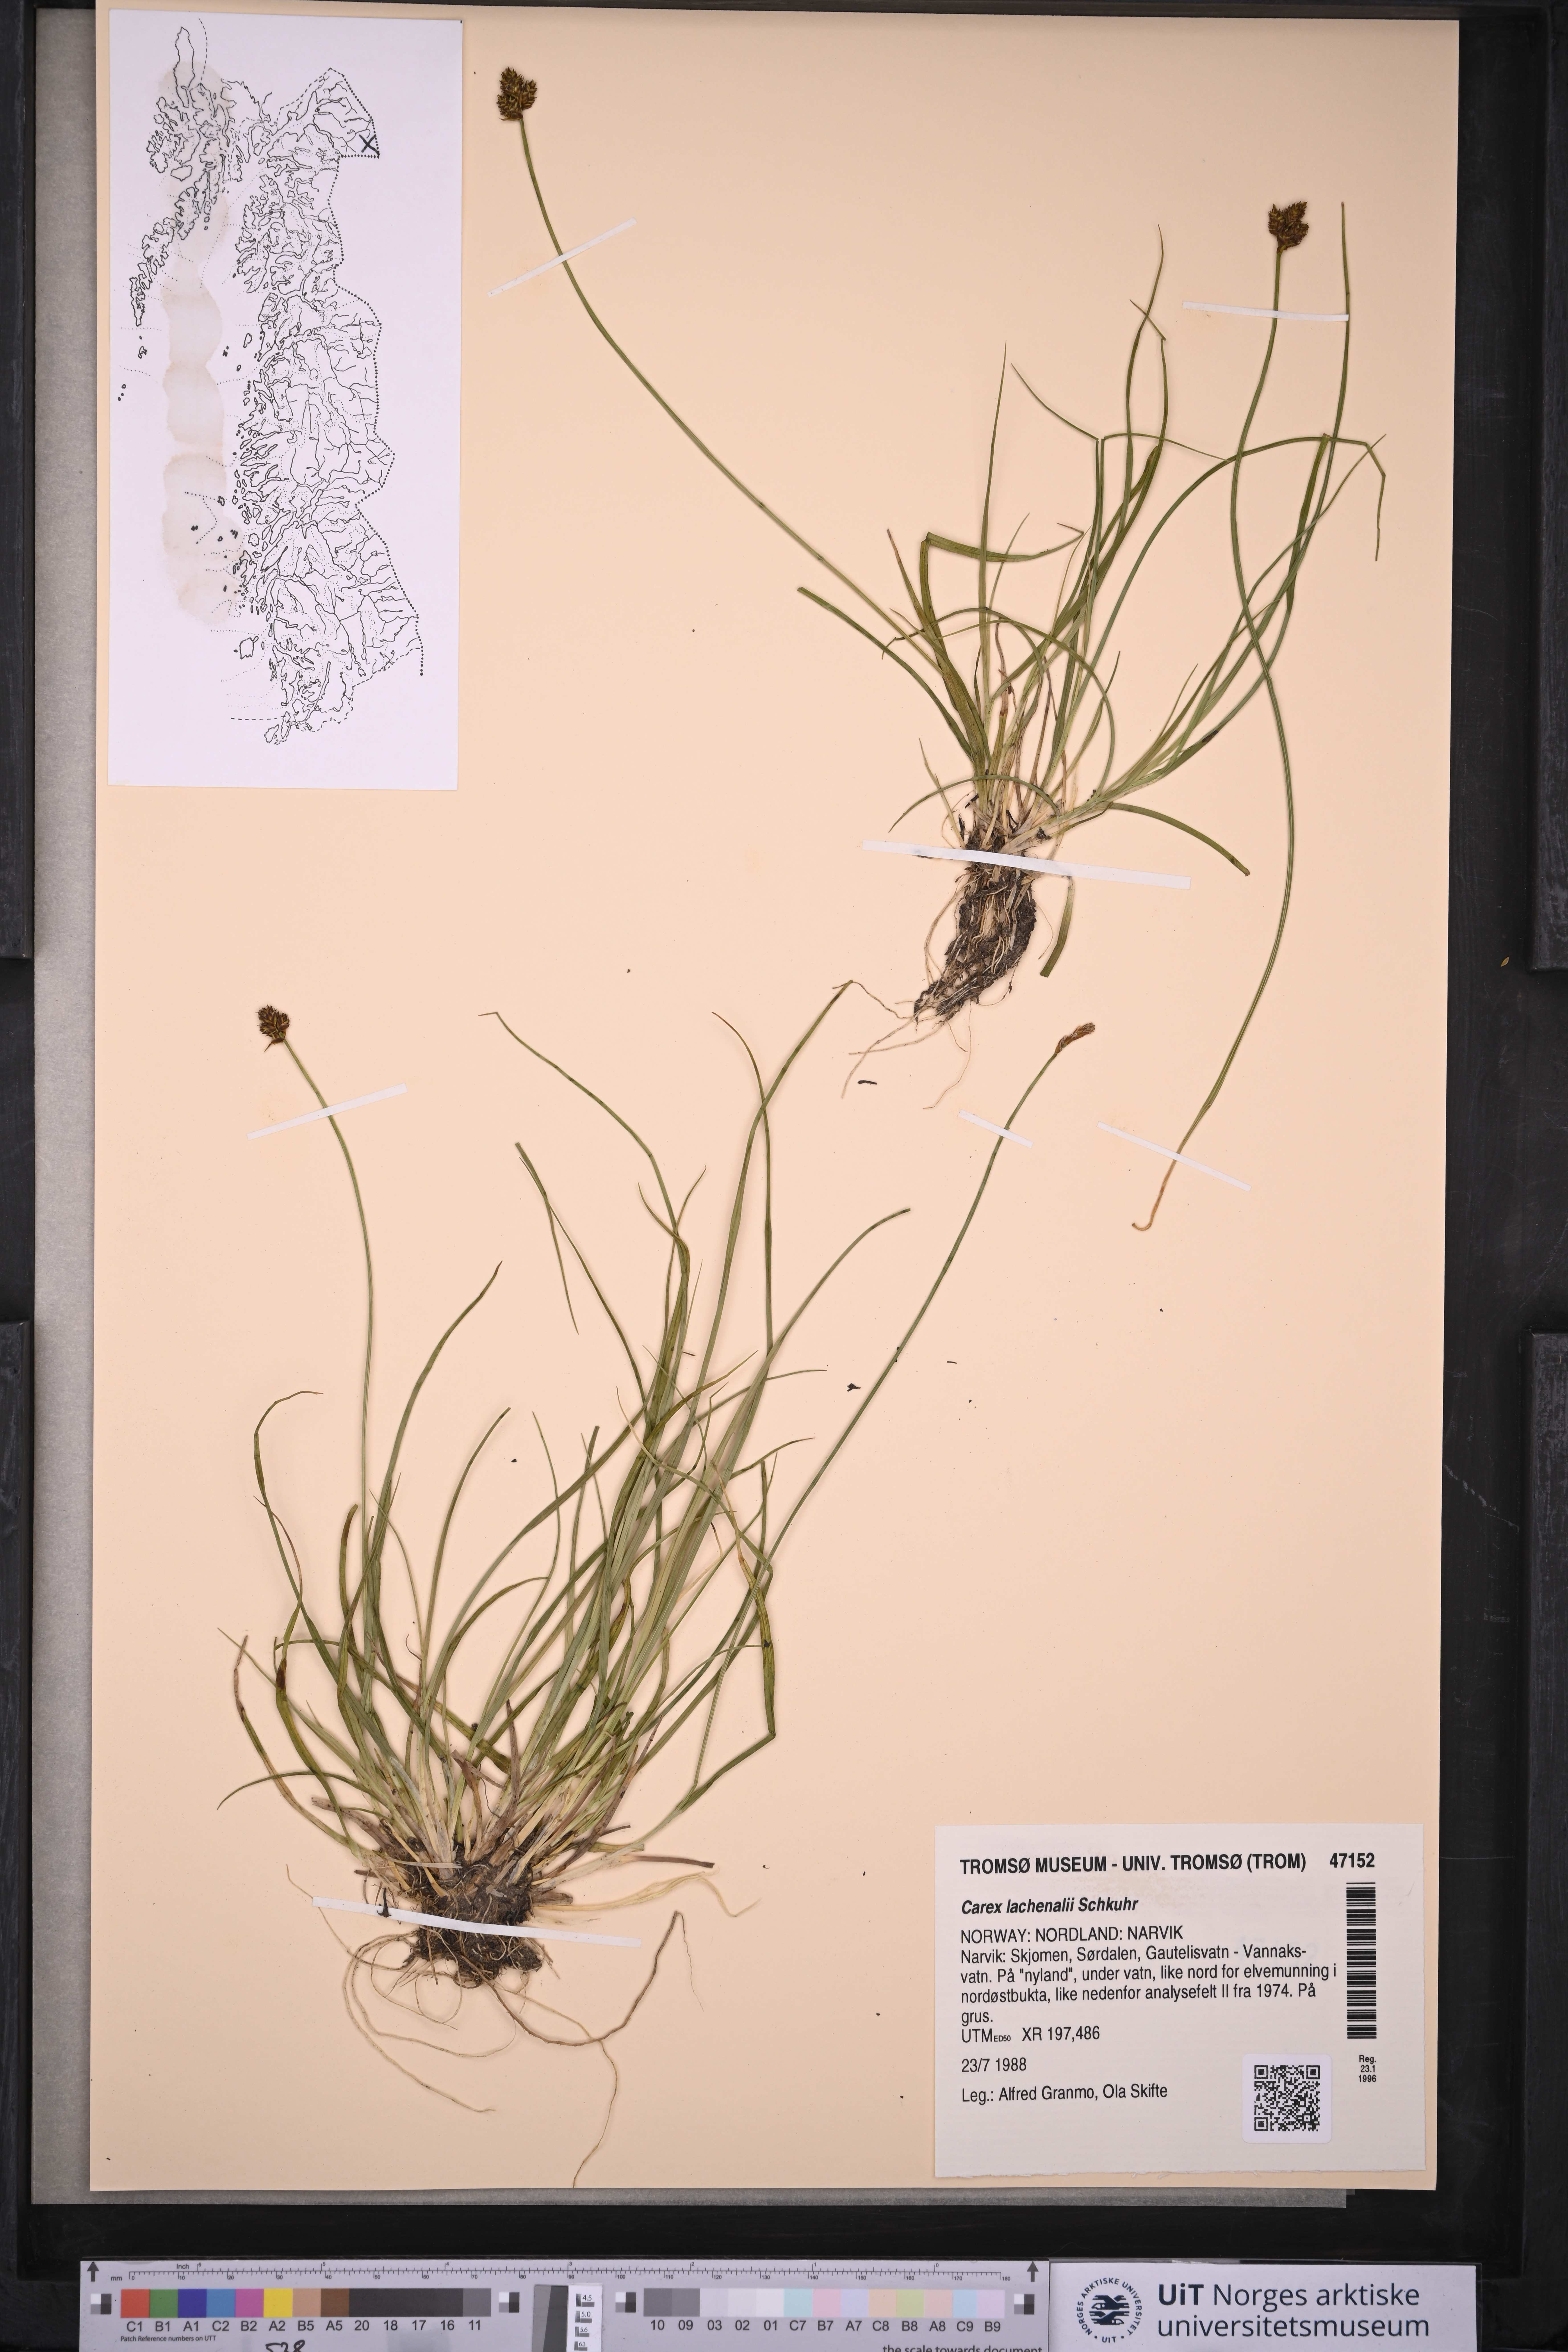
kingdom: Plantae
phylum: Tracheophyta
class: Liliopsida
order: Poales
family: Cyperaceae
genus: Carex
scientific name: Carex lachenalii
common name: Hare's-foot sedge
